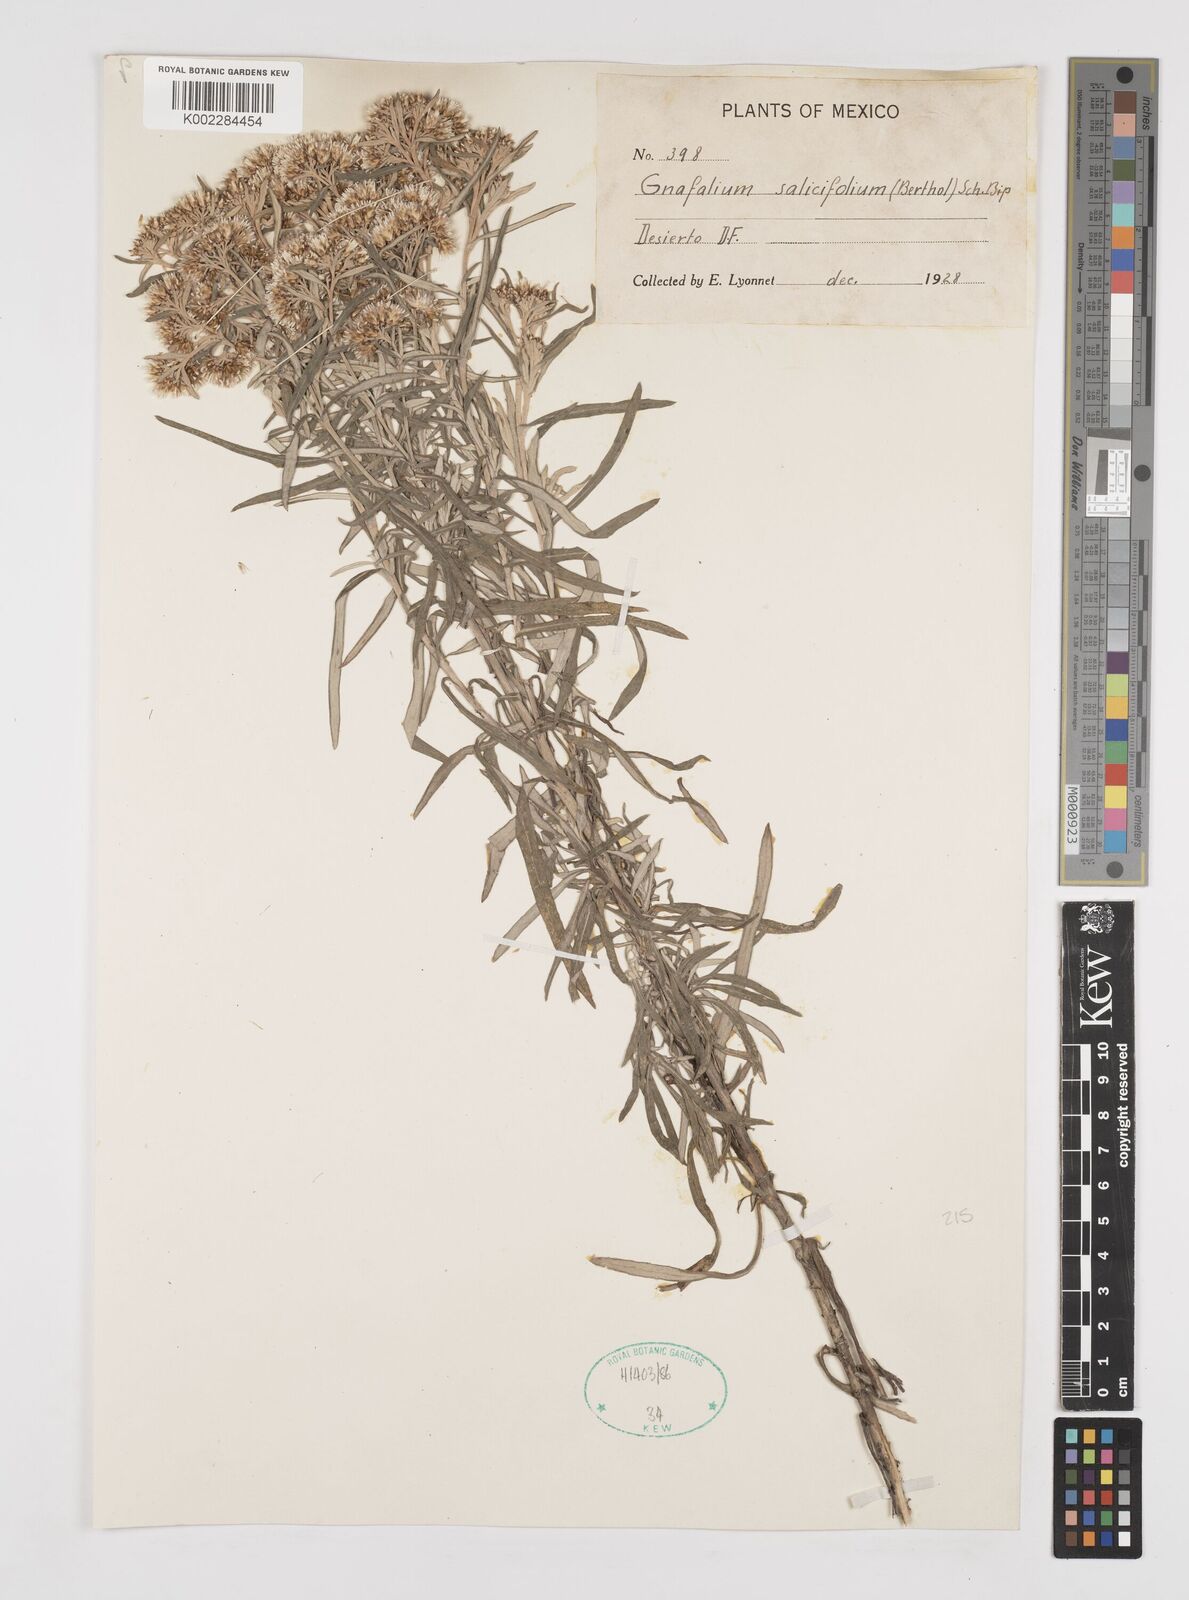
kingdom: Plantae
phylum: Tracheophyta
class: Magnoliopsida
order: Asterales
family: Asteraceae
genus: Gnaphaliothamnus
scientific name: Gnaphaliothamnus salicifolius
